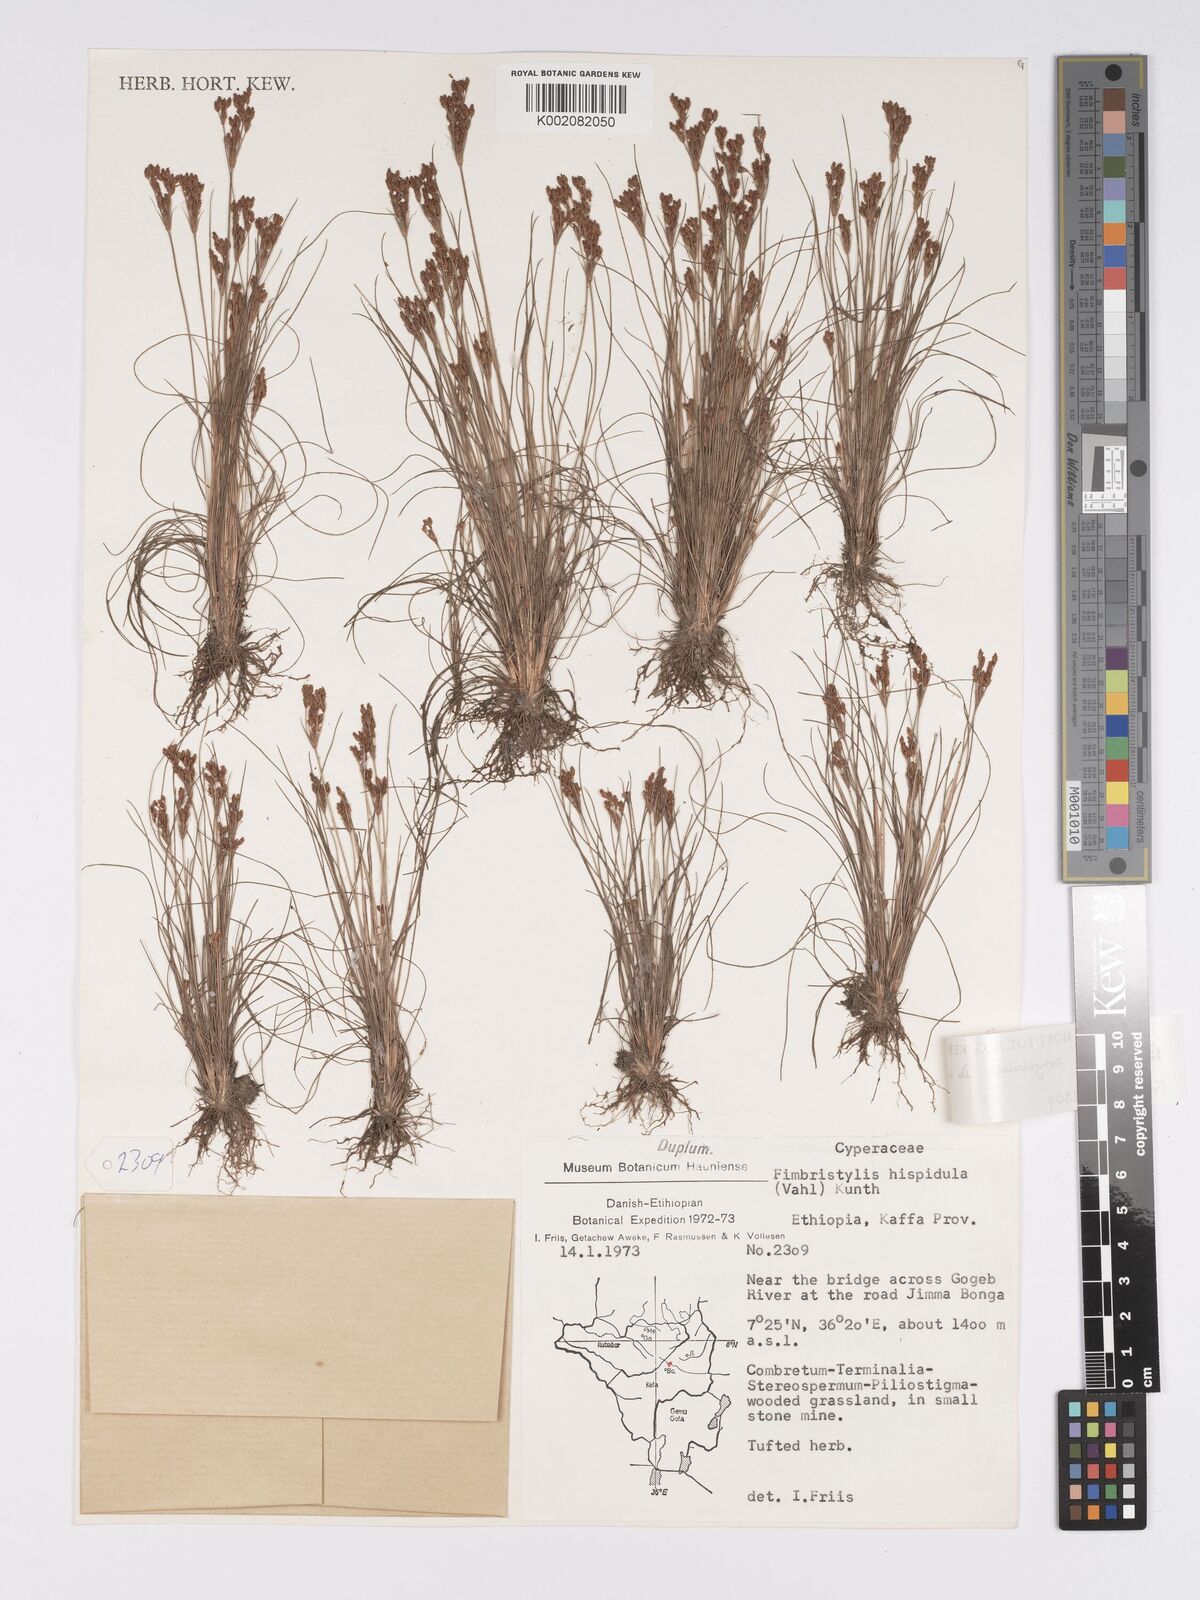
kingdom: Plantae
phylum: Tracheophyta
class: Liliopsida
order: Poales
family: Cyperaceae
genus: Bulbostylis
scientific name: Bulbostylis congolensis
